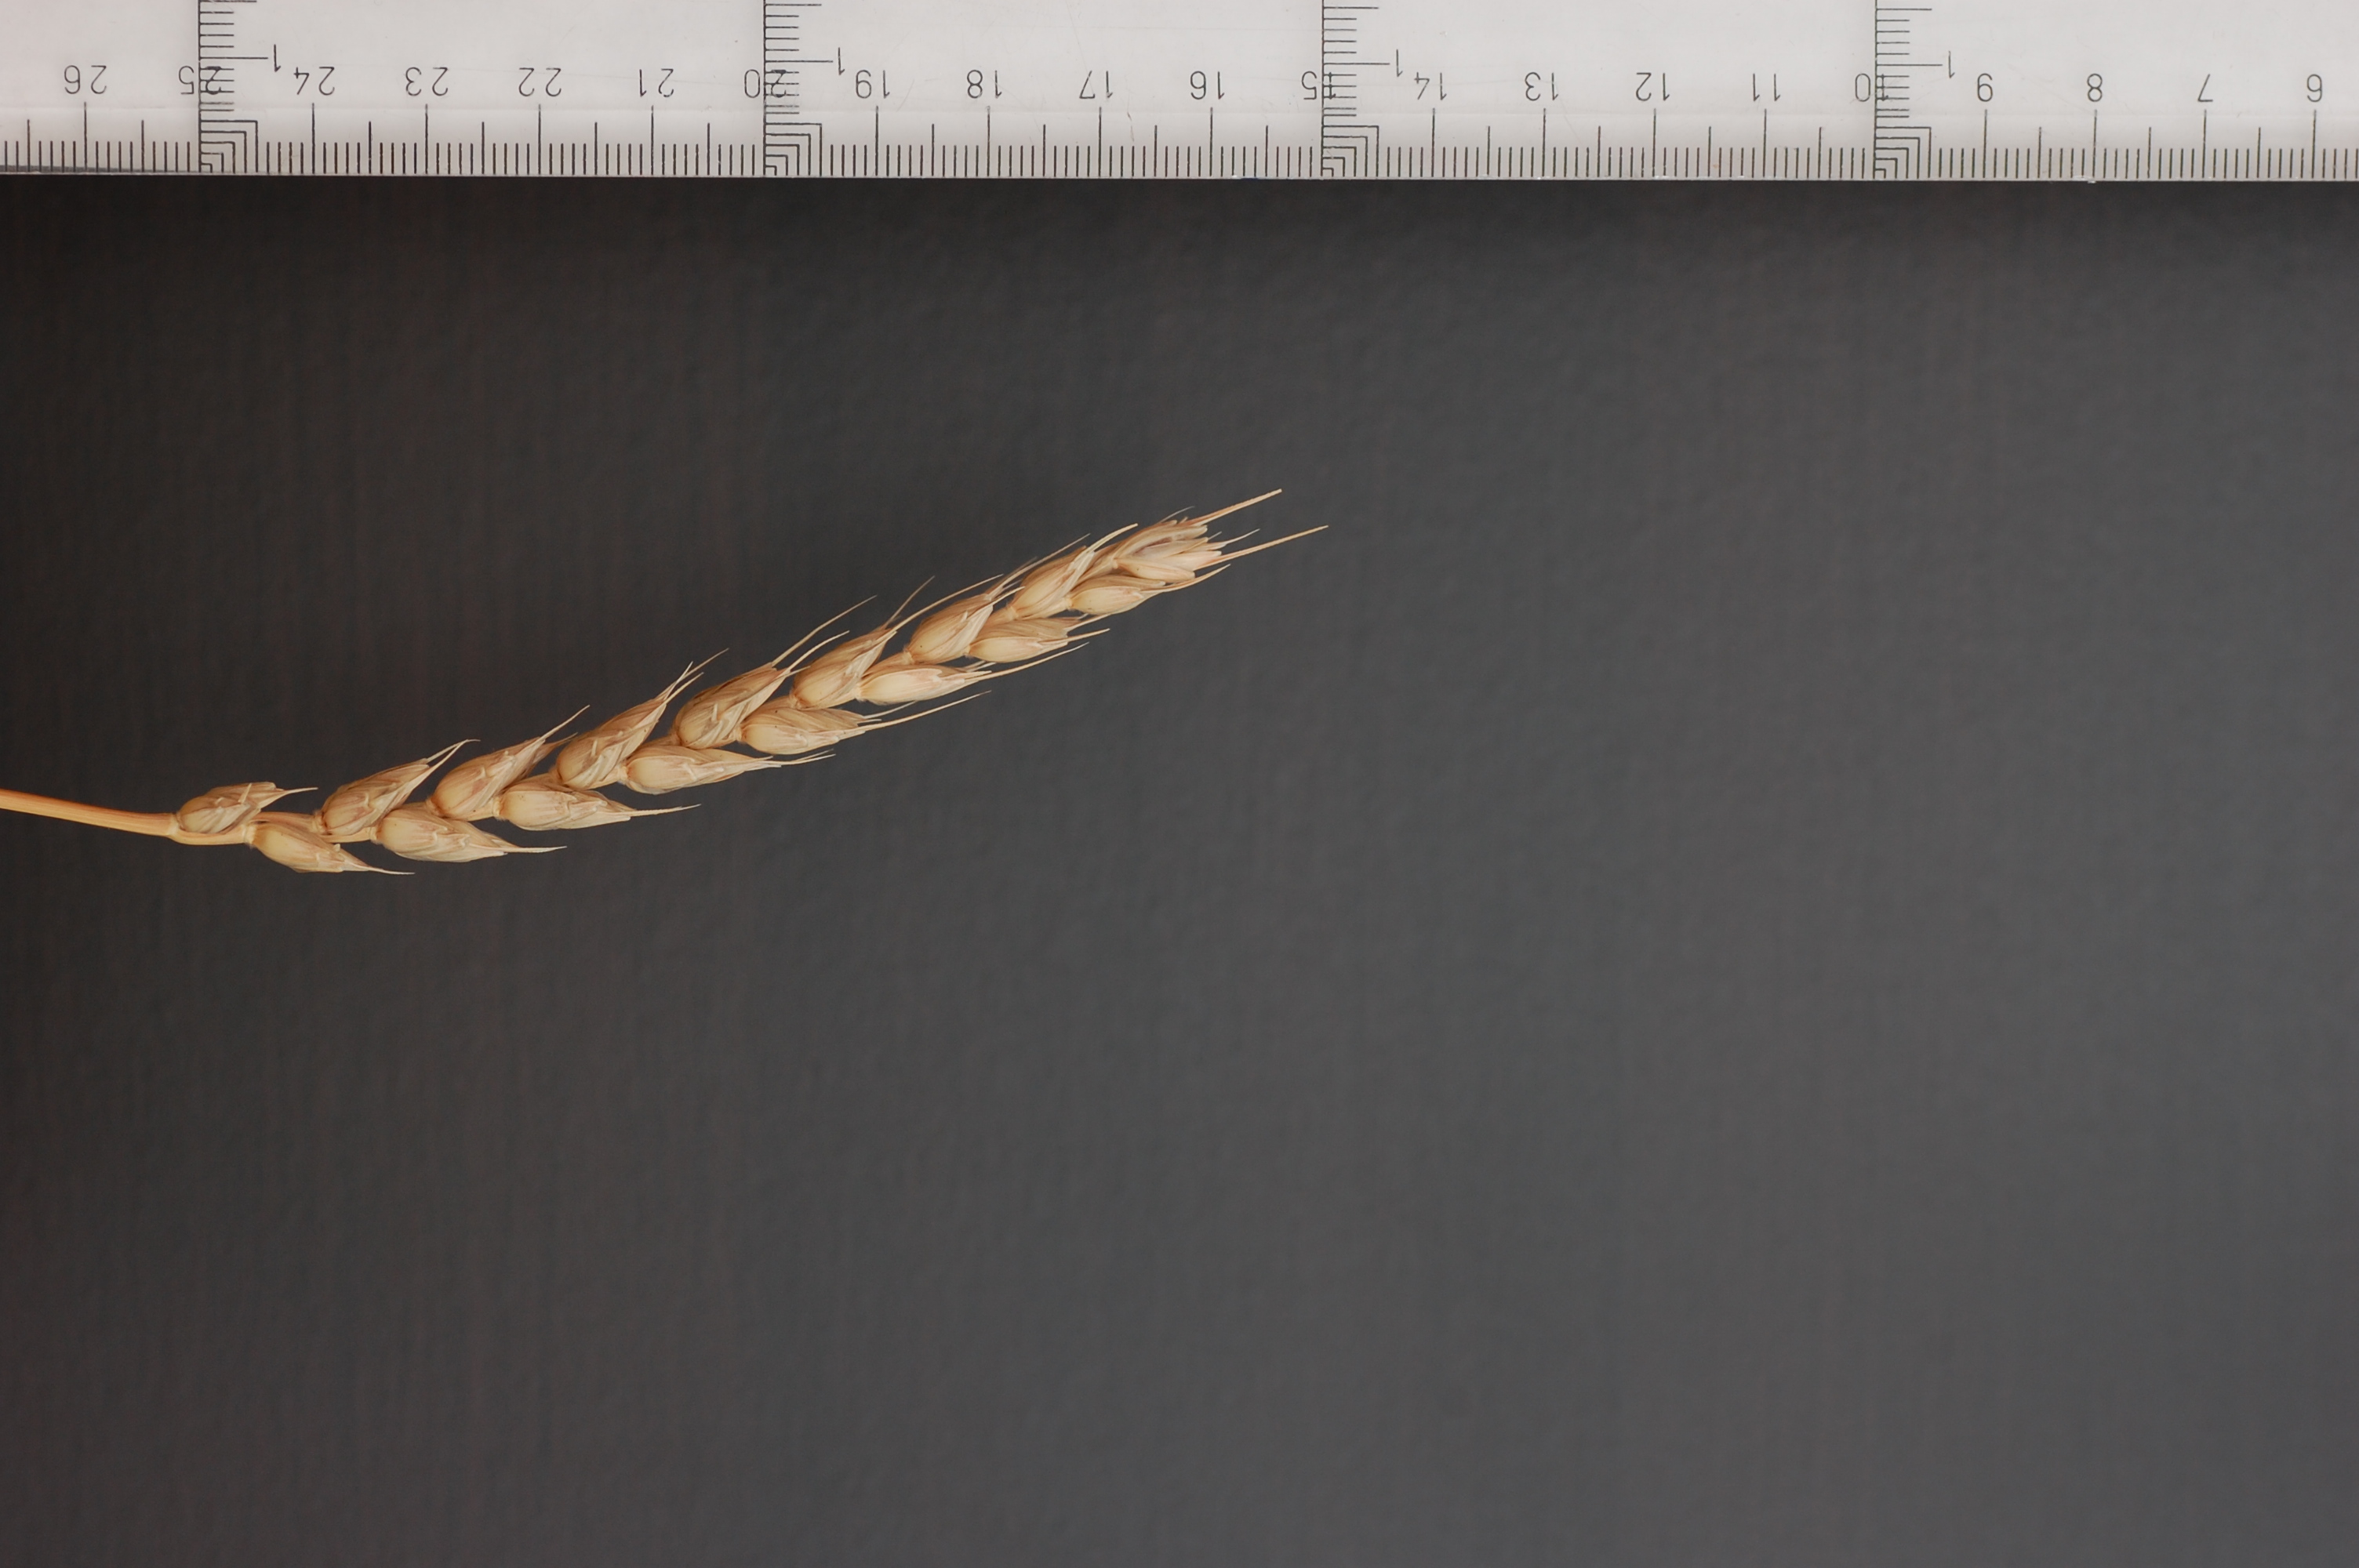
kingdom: Plantae
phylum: Tracheophyta
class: Liliopsida
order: Poales
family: Poaceae
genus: Triticum
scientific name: Triticum aestivum
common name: Common wheat
